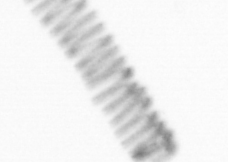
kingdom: Chromista
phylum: Ochrophyta
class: Bacillariophyceae
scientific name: Bacillariophyceae
